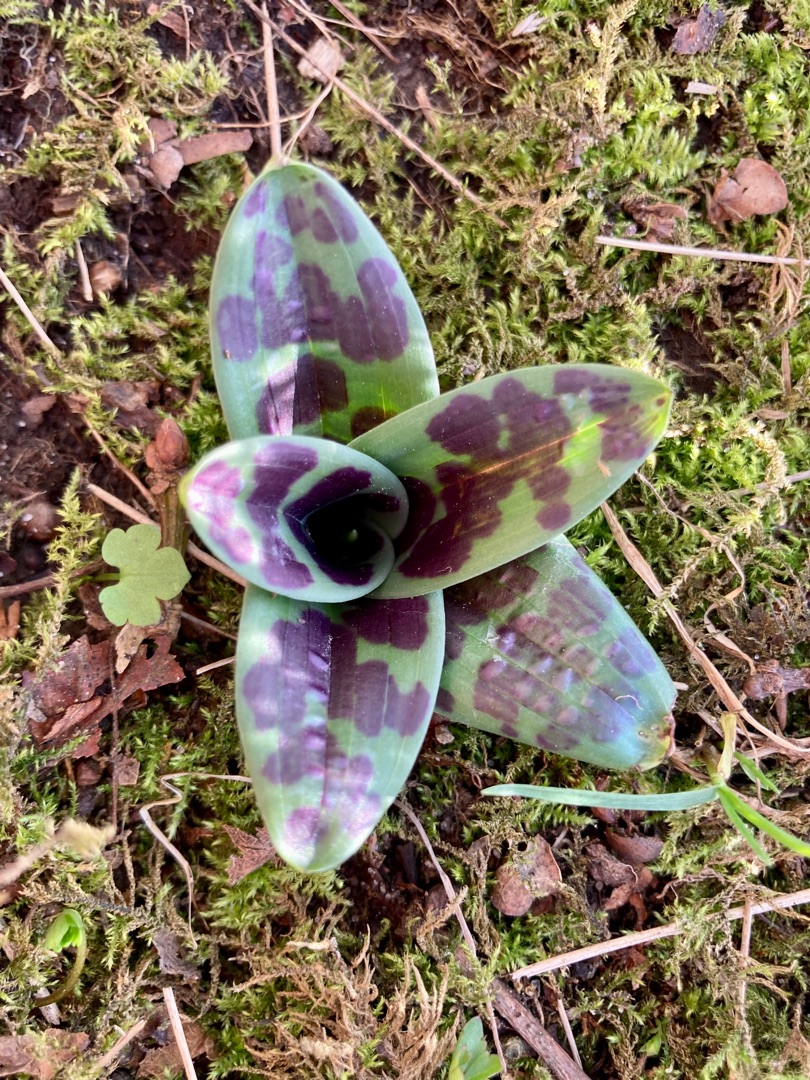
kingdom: Plantae
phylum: Tracheophyta
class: Liliopsida
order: Asparagales
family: Orchidaceae
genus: Orchis
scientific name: Orchis mascula
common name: Tyndakset gøgeurt
